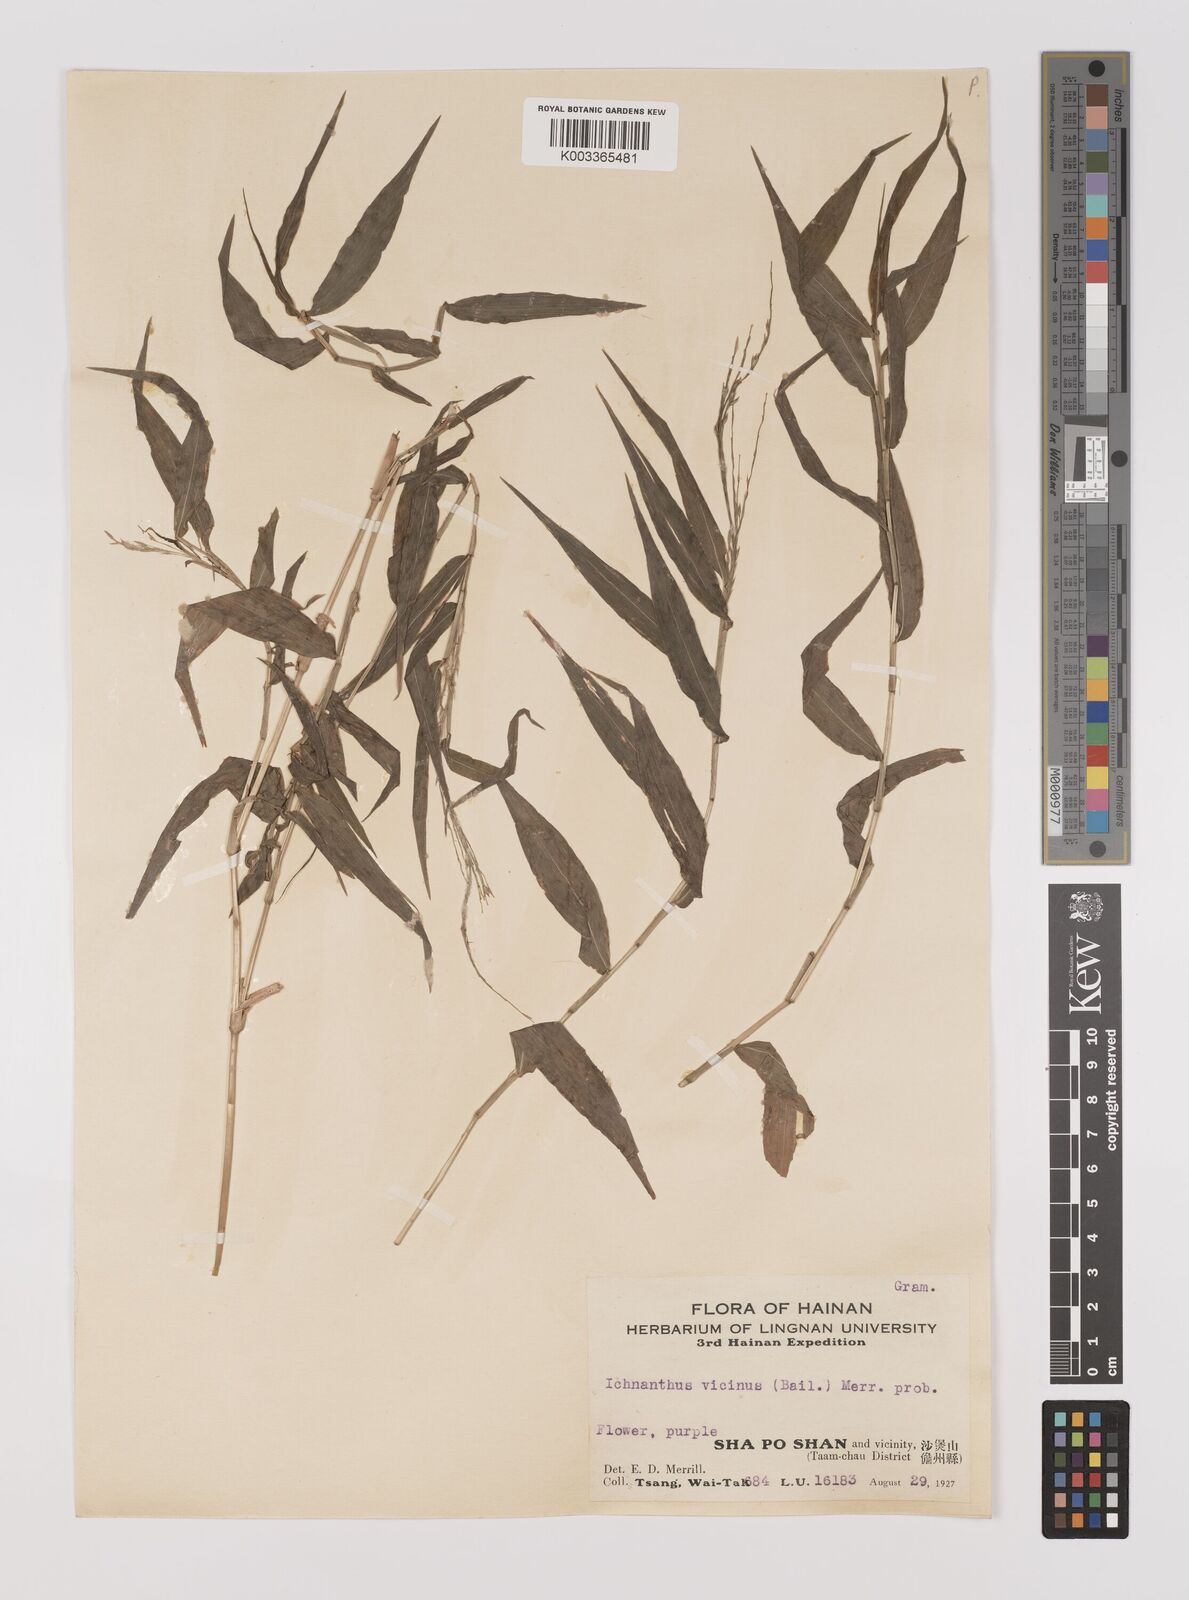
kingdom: Plantae
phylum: Tracheophyta
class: Liliopsida
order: Poales
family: Poaceae
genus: Ichnanthus
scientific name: Ichnanthus pallens
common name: Water grass
